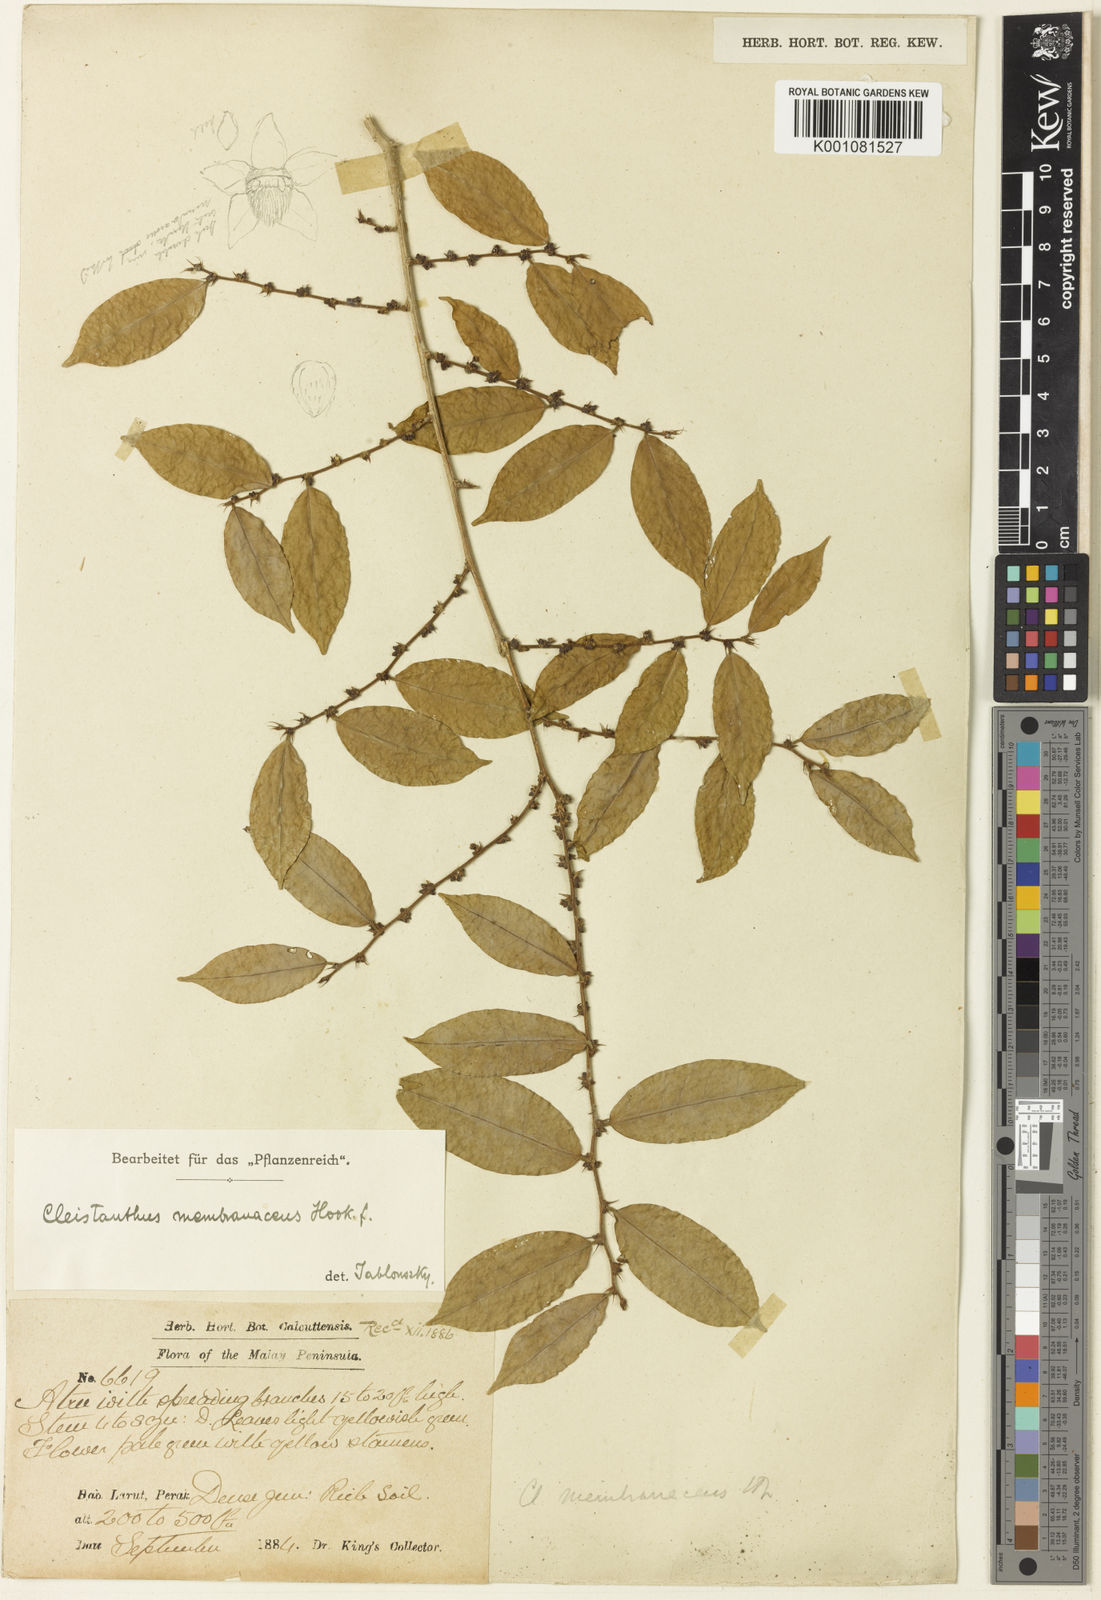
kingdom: Plantae
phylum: Tracheophyta
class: Magnoliopsida
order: Malpighiales
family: Phyllanthaceae
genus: Cleistanthus
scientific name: Cleistanthus membranaceus
